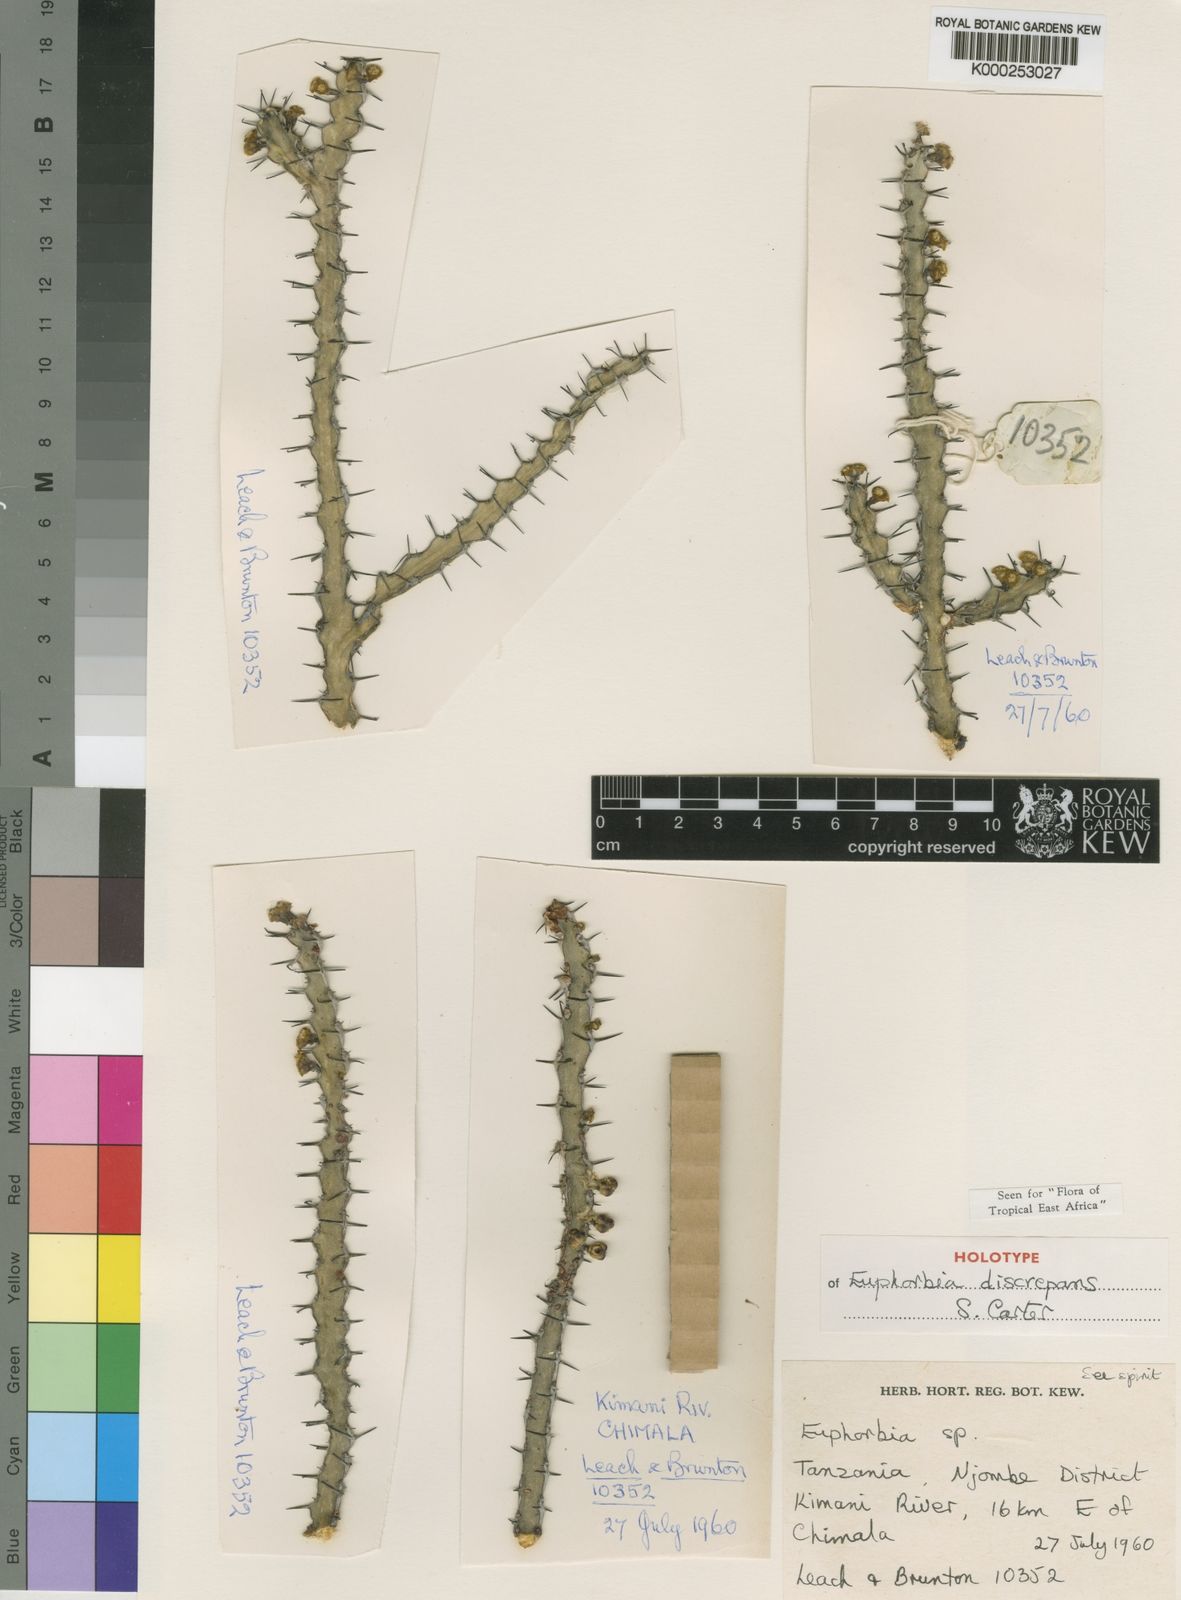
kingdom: Plantae
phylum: Tracheophyta
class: Magnoliopsida
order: Malpighiales
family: Euphorbiaceae
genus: Euphorbia
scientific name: Euphorbia discrepans
